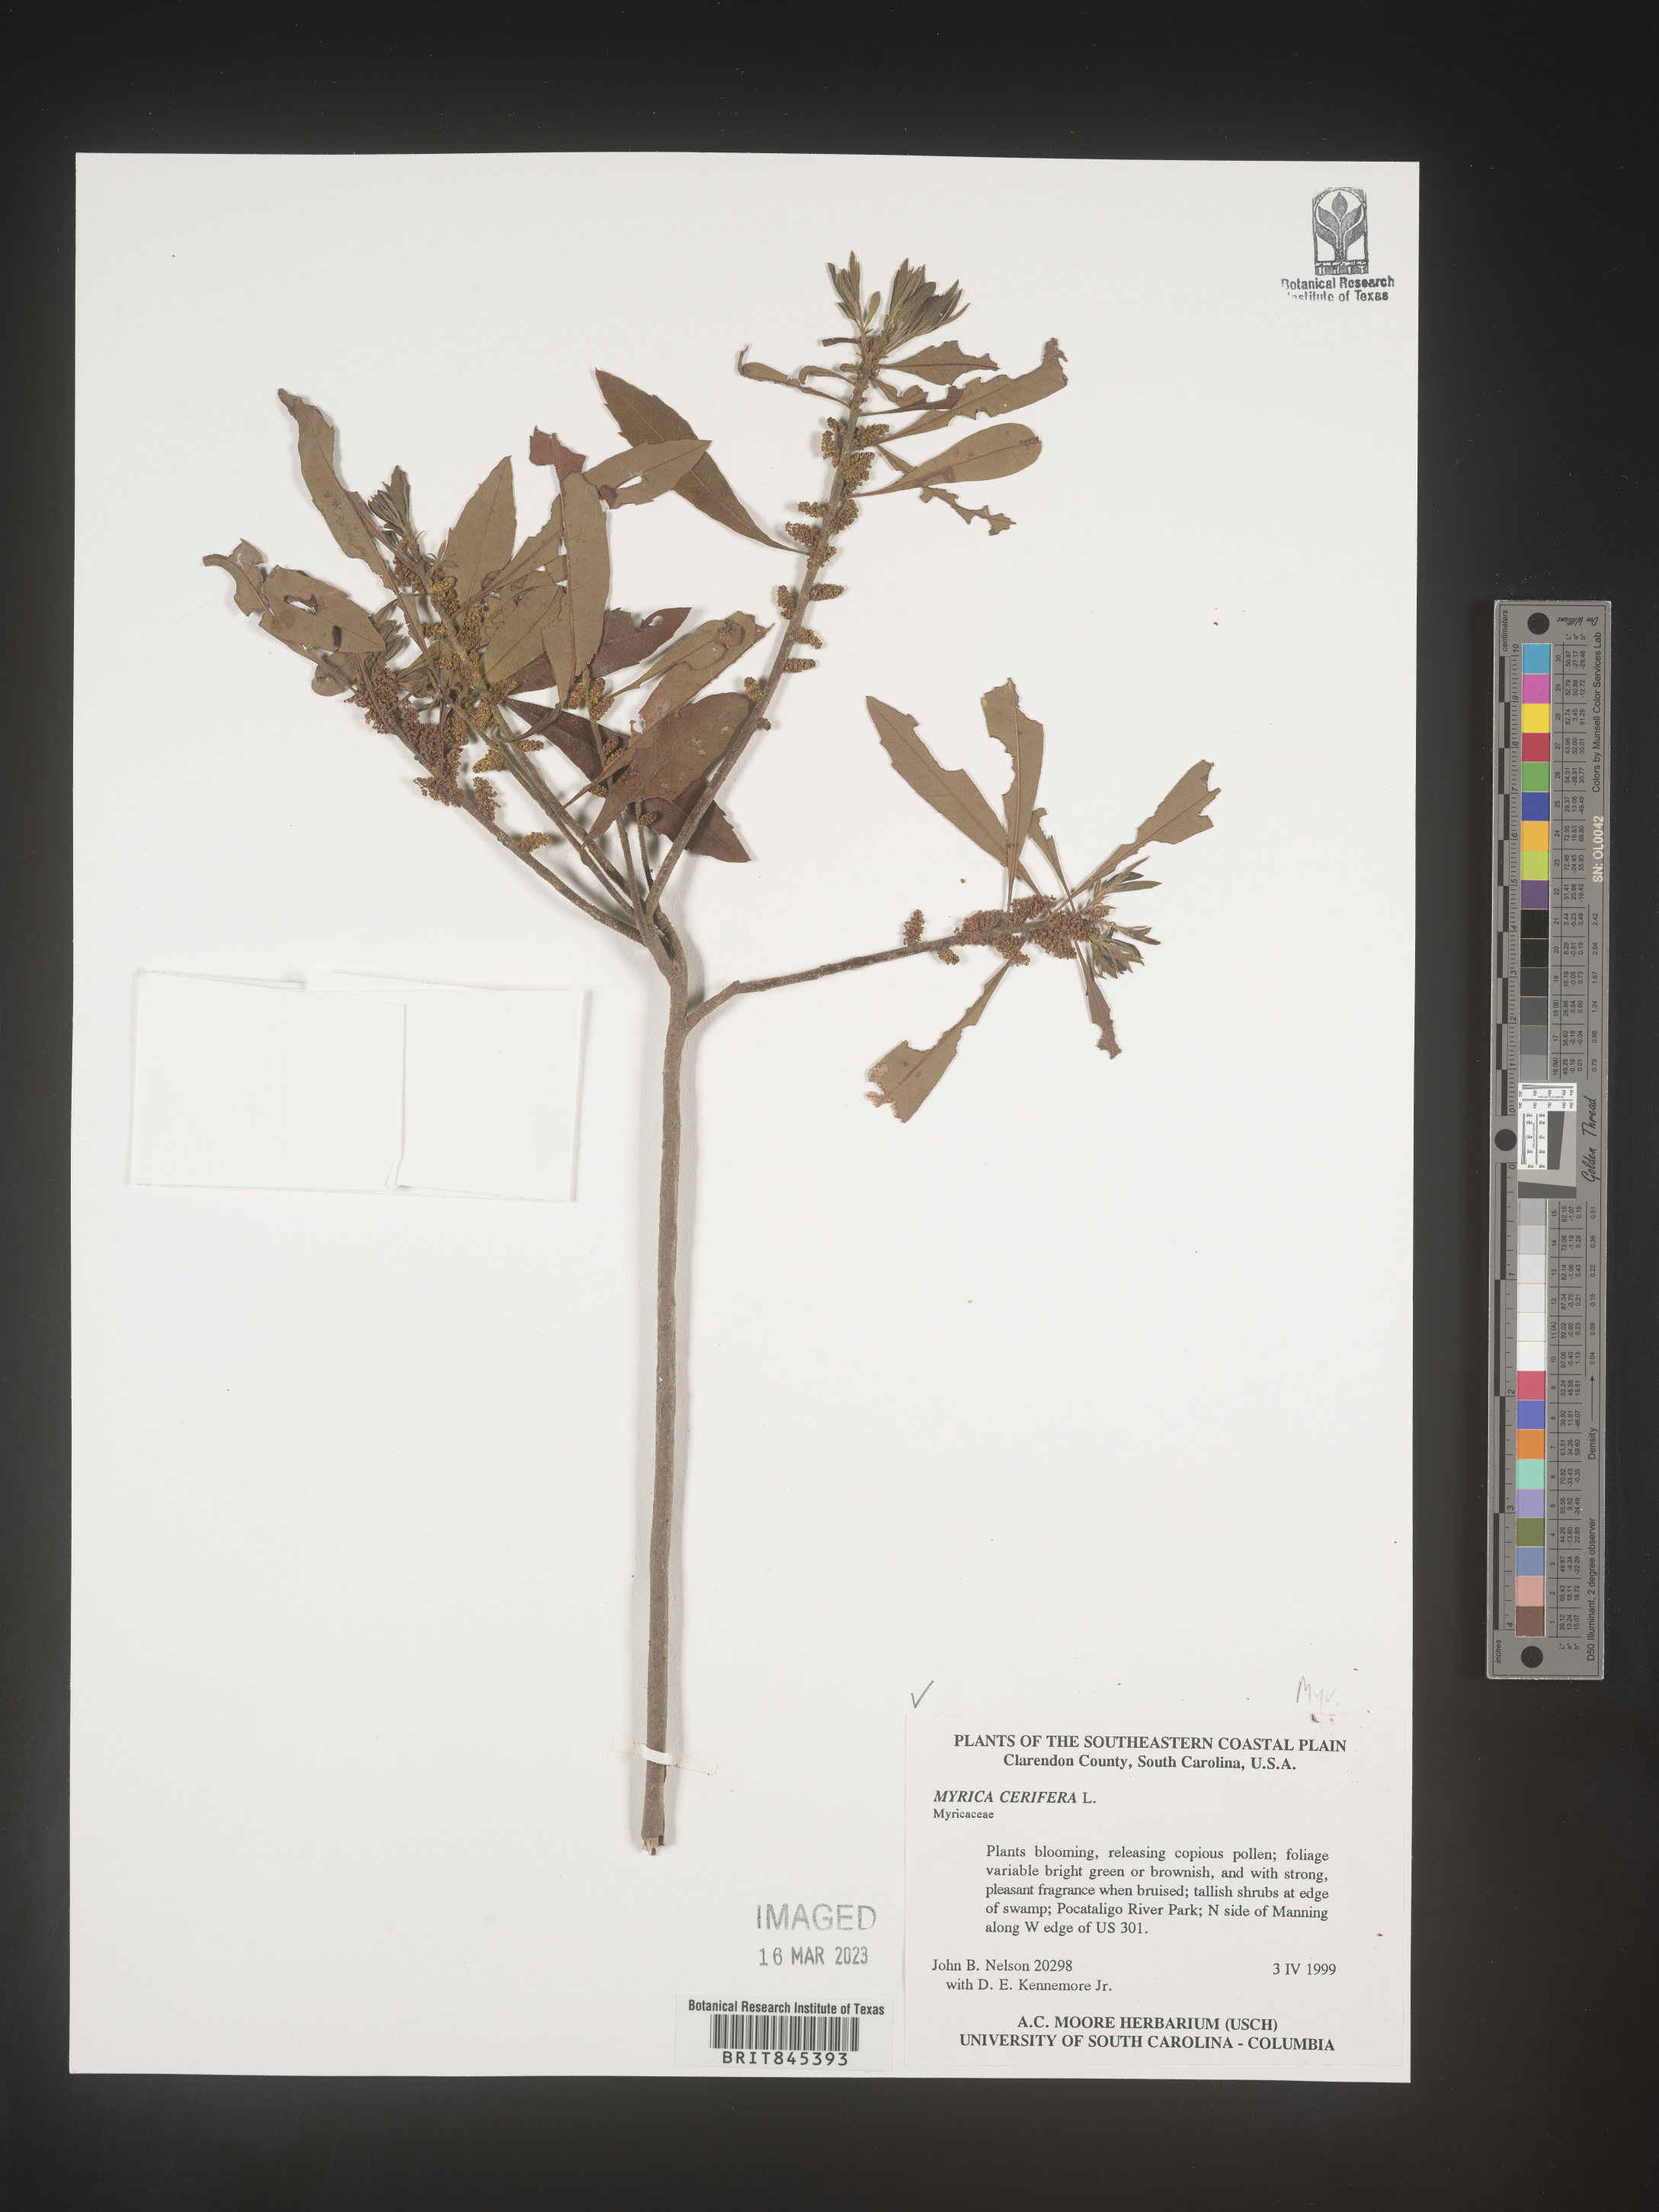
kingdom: Plantae
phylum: Tracheophyta
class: Magnoliopsida
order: Fagales
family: Myricaceae
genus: Morella
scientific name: Morella cerifera
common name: Wax myrtle
